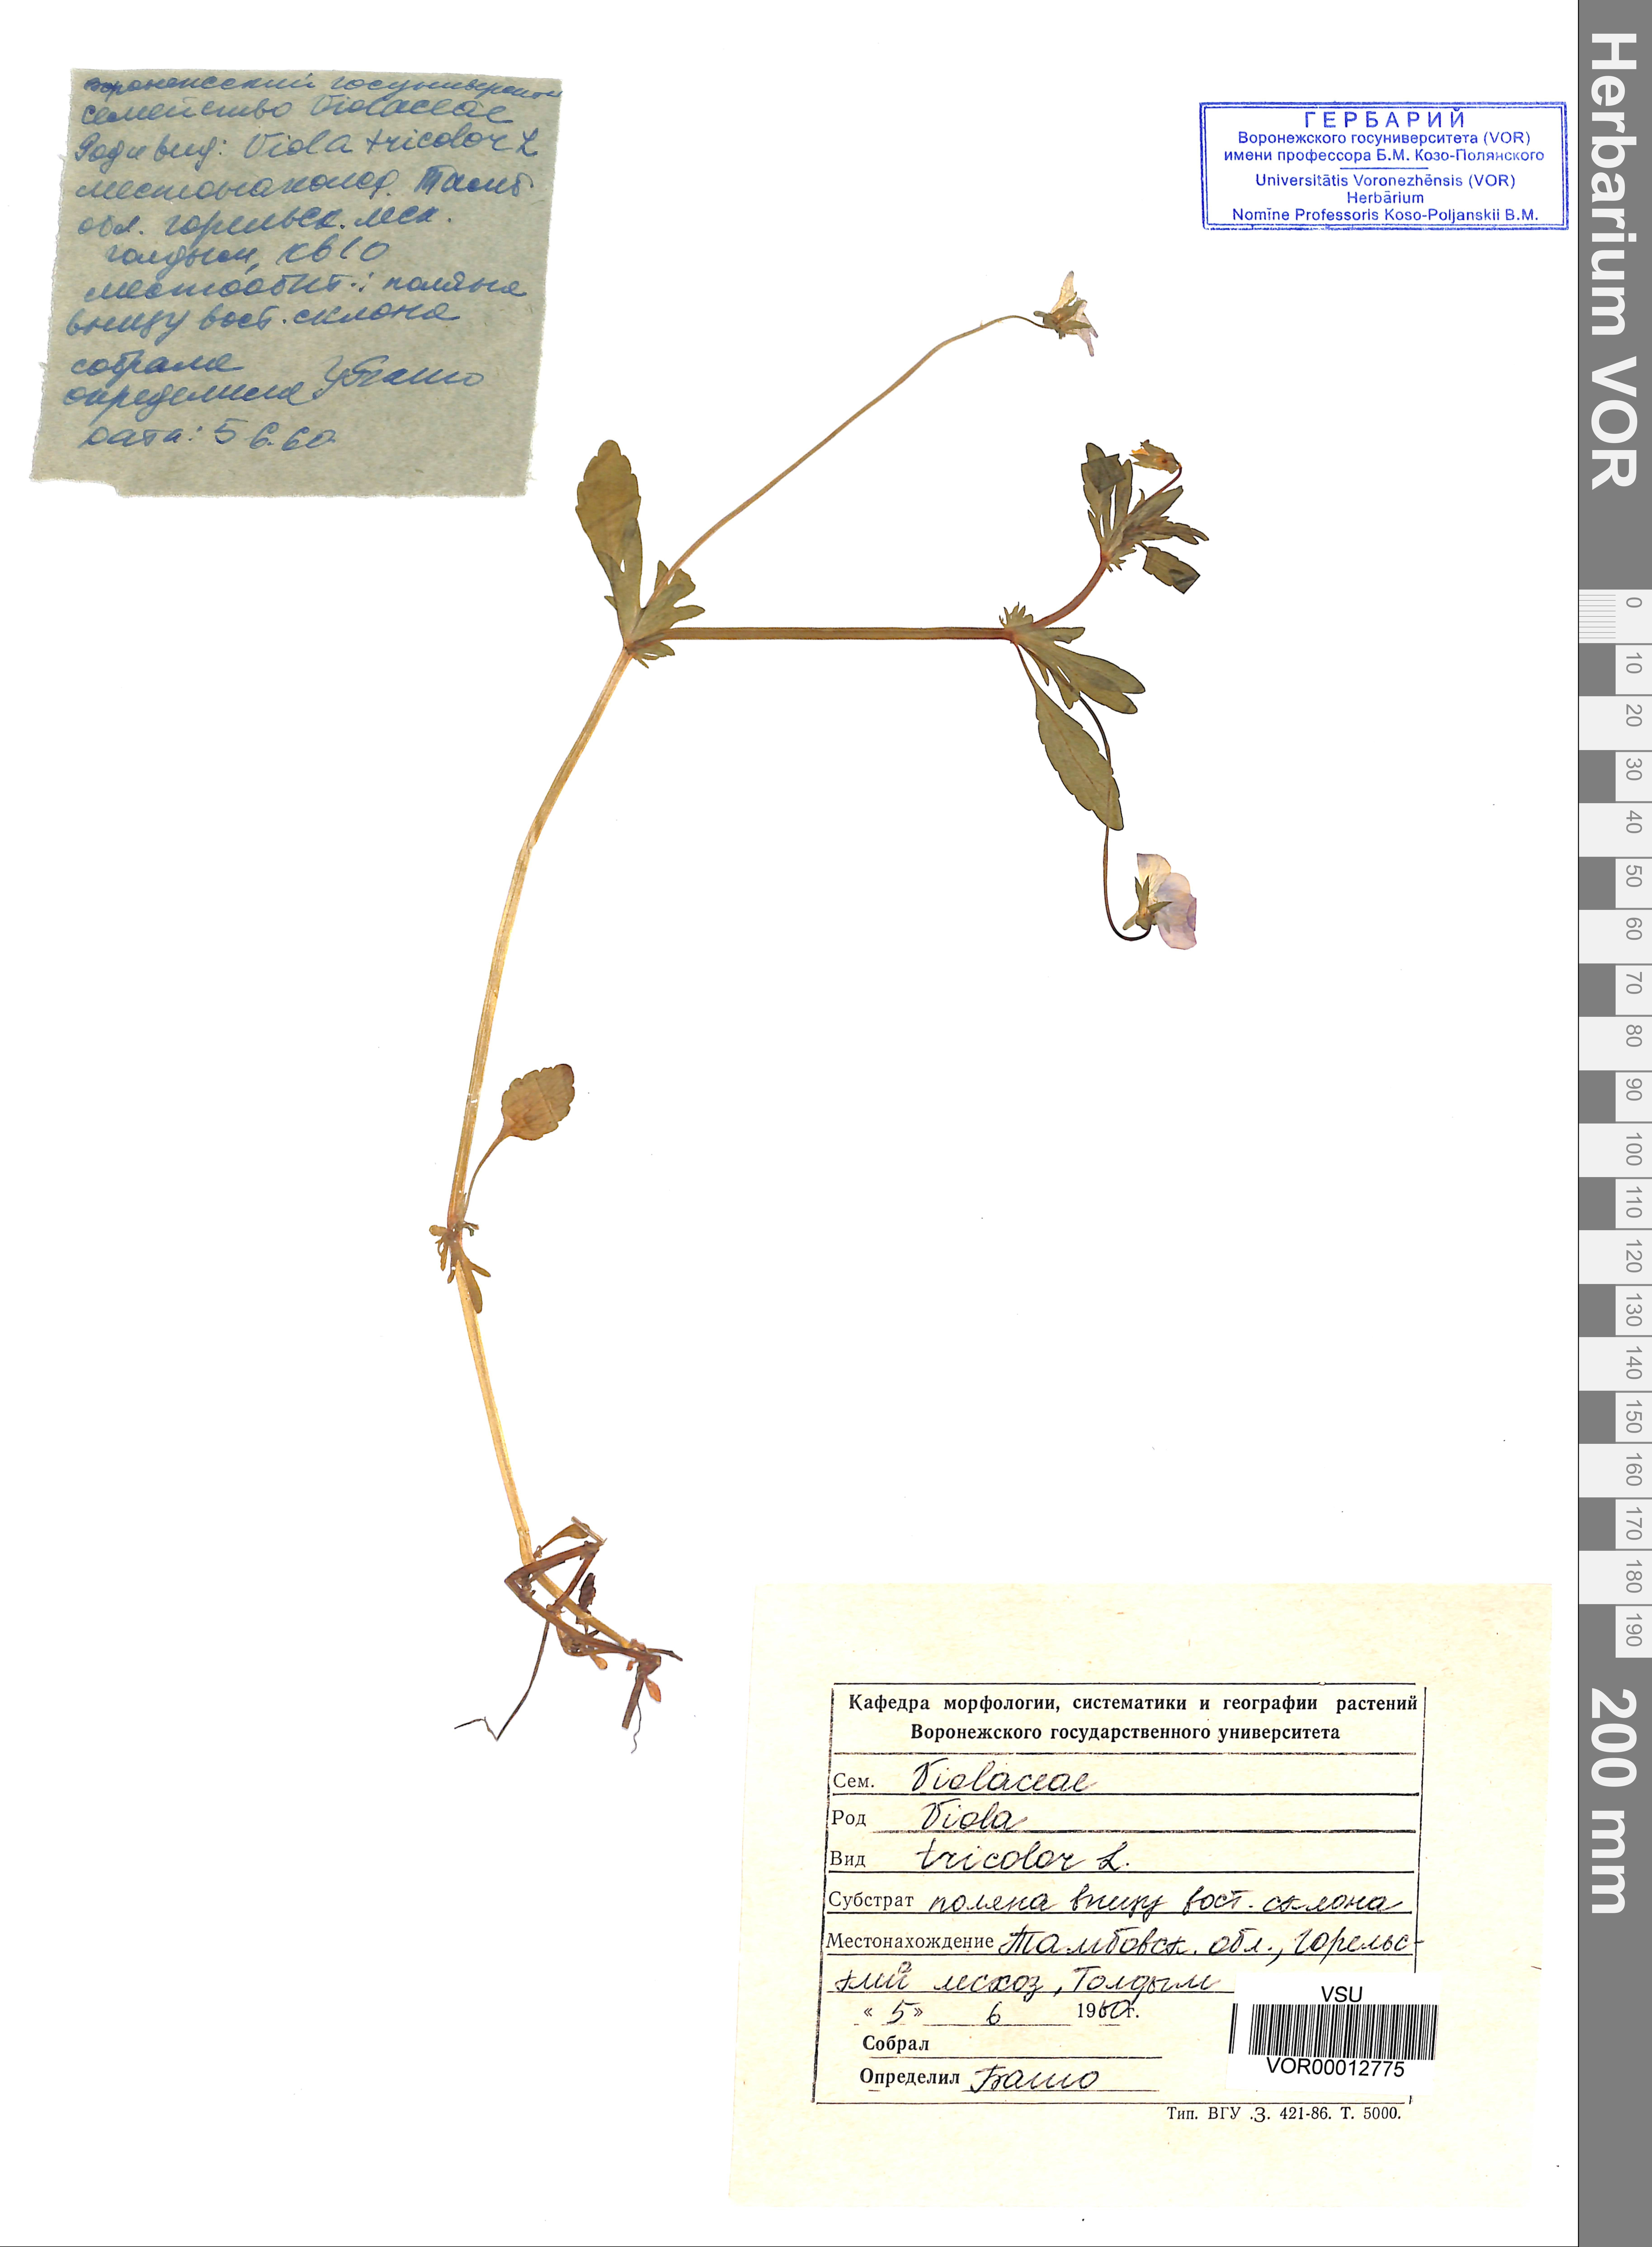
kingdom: Plantae
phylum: Tracheophyta
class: Magnoliopsida
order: Malpighiales
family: Violaceae
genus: Viola
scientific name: Viola tricolor
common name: Pansy
